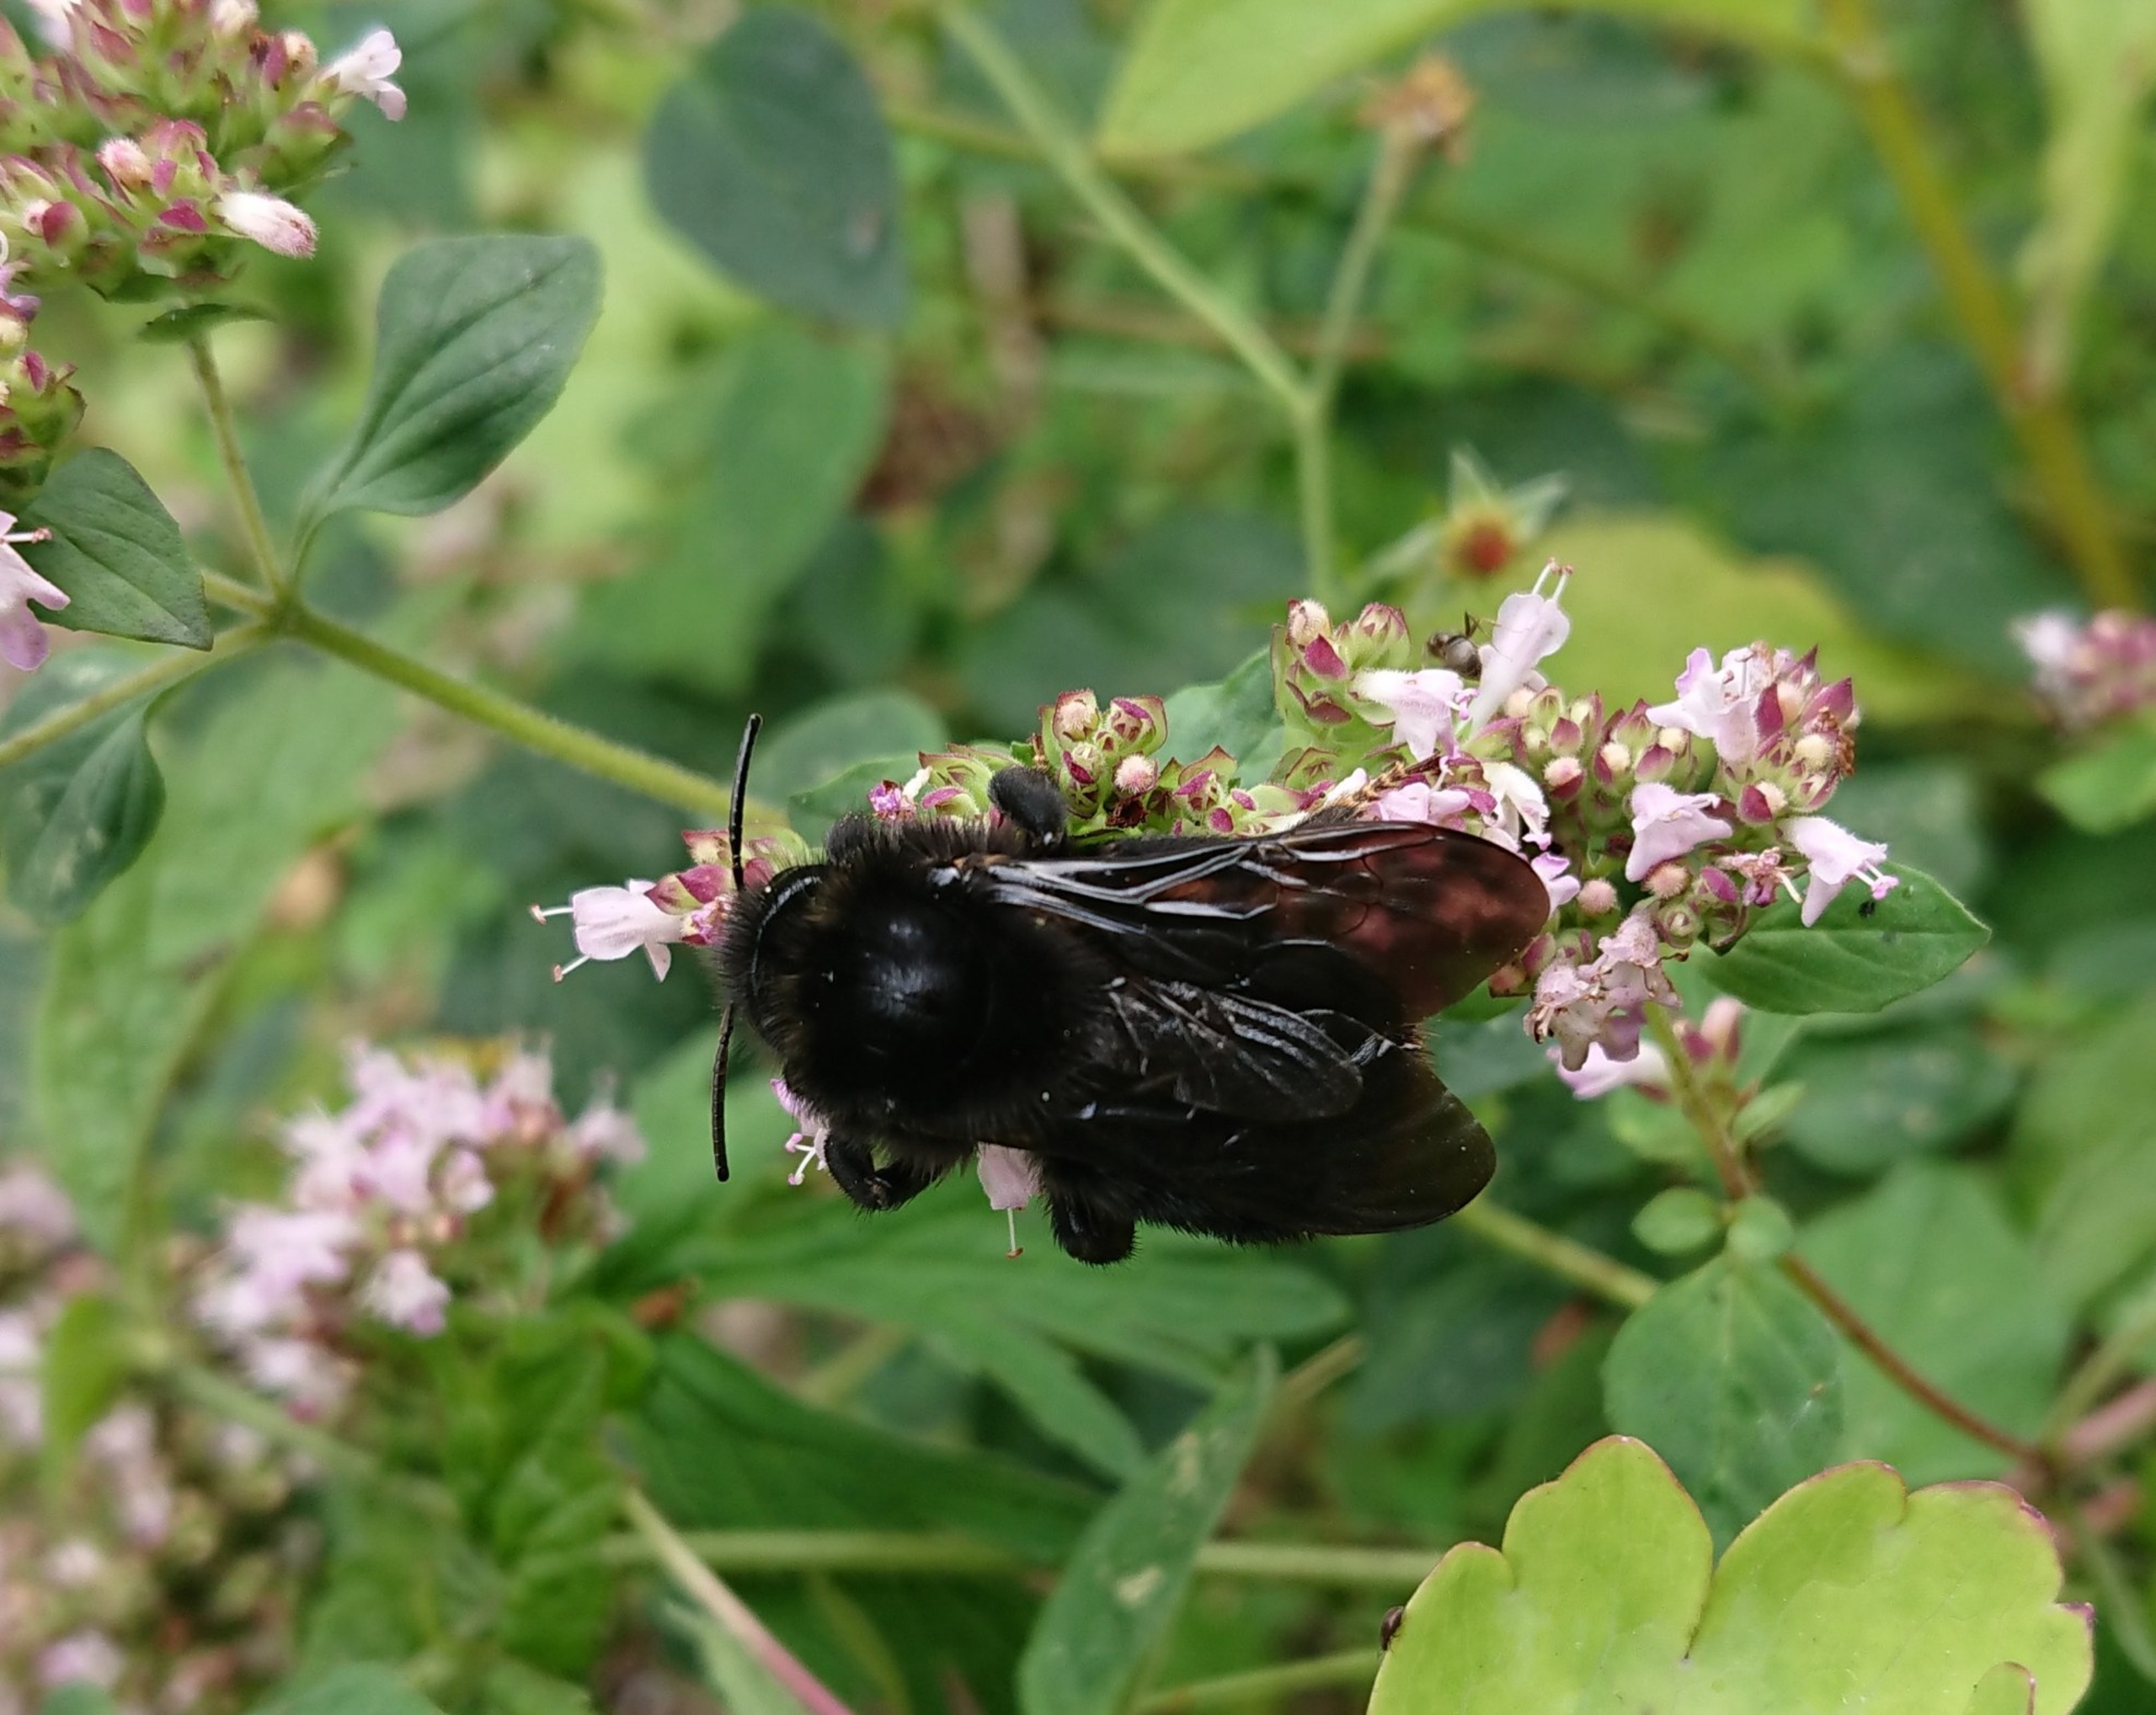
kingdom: Animalia
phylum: Arthropoda
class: Insecta
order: Hymenoptera
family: Apidae
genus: Bombus
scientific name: Bombus rupestris
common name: Stensnyltehumle
